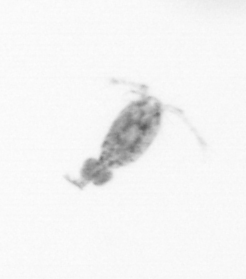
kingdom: Animalia
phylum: Arthropoda
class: Copepoda
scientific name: Copepoda
